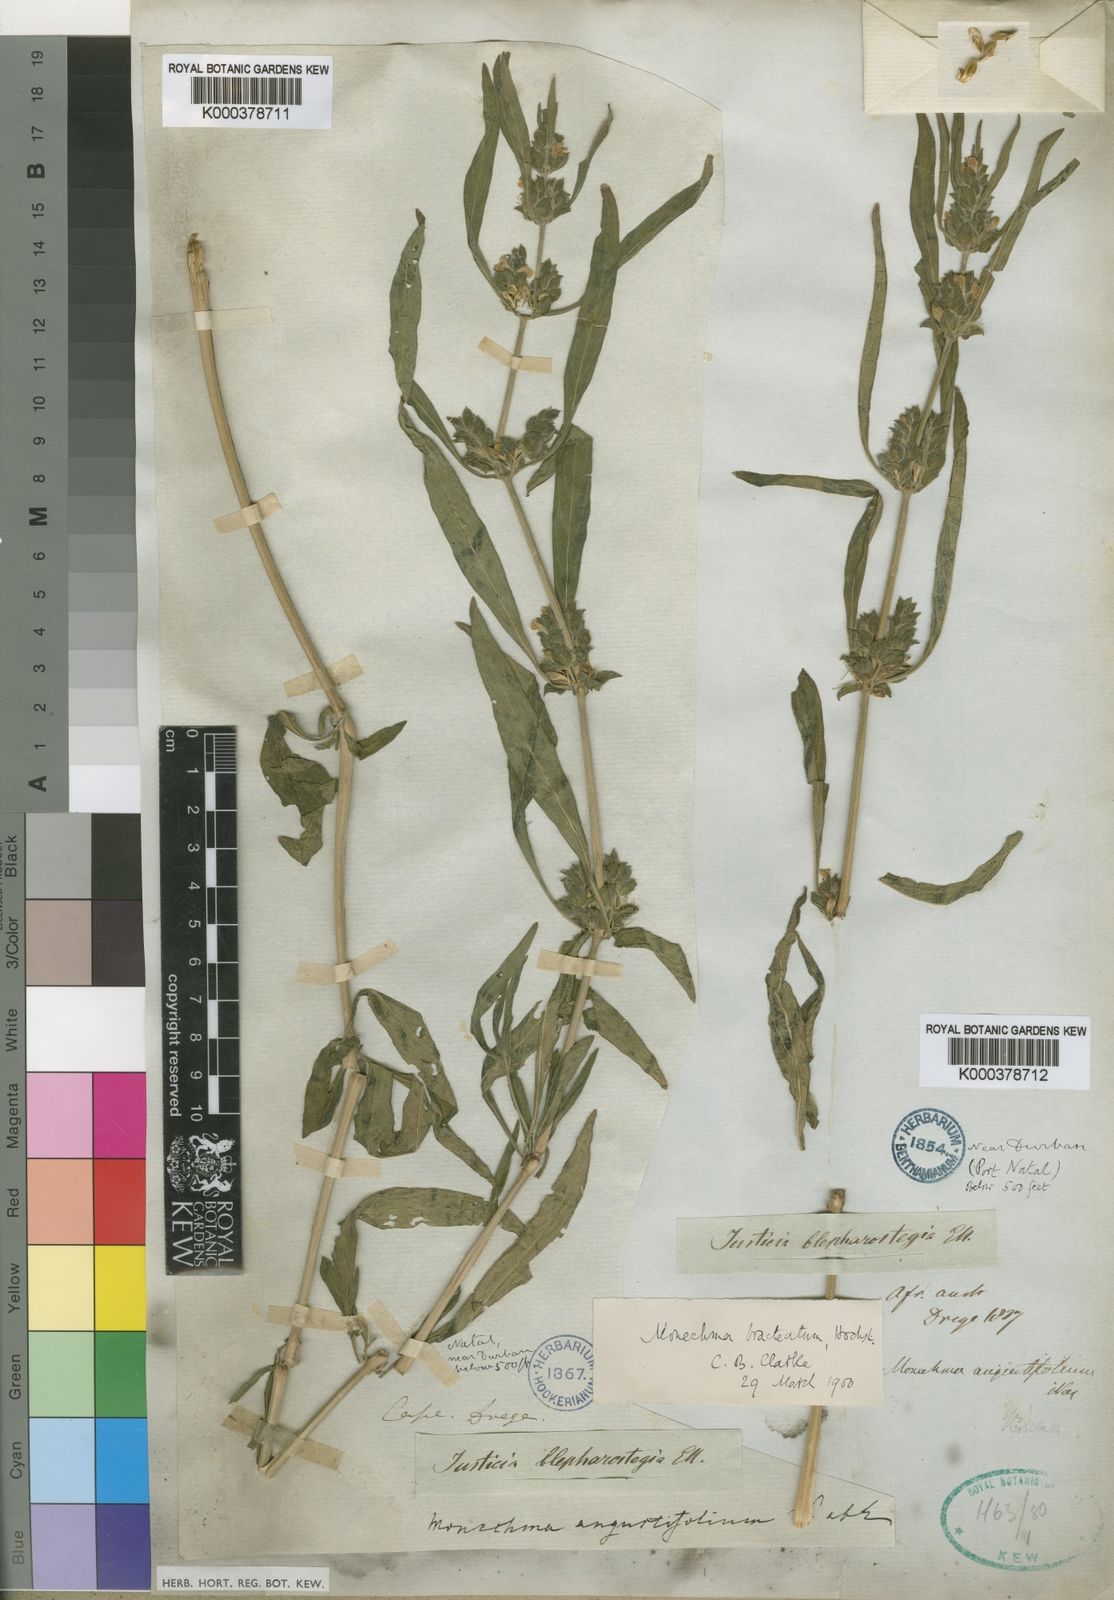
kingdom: Plantae
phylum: Tracheophyta
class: Magnoliopsida
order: Lamiales
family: Acanthaceae
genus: Monechma
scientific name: Monechma debile
